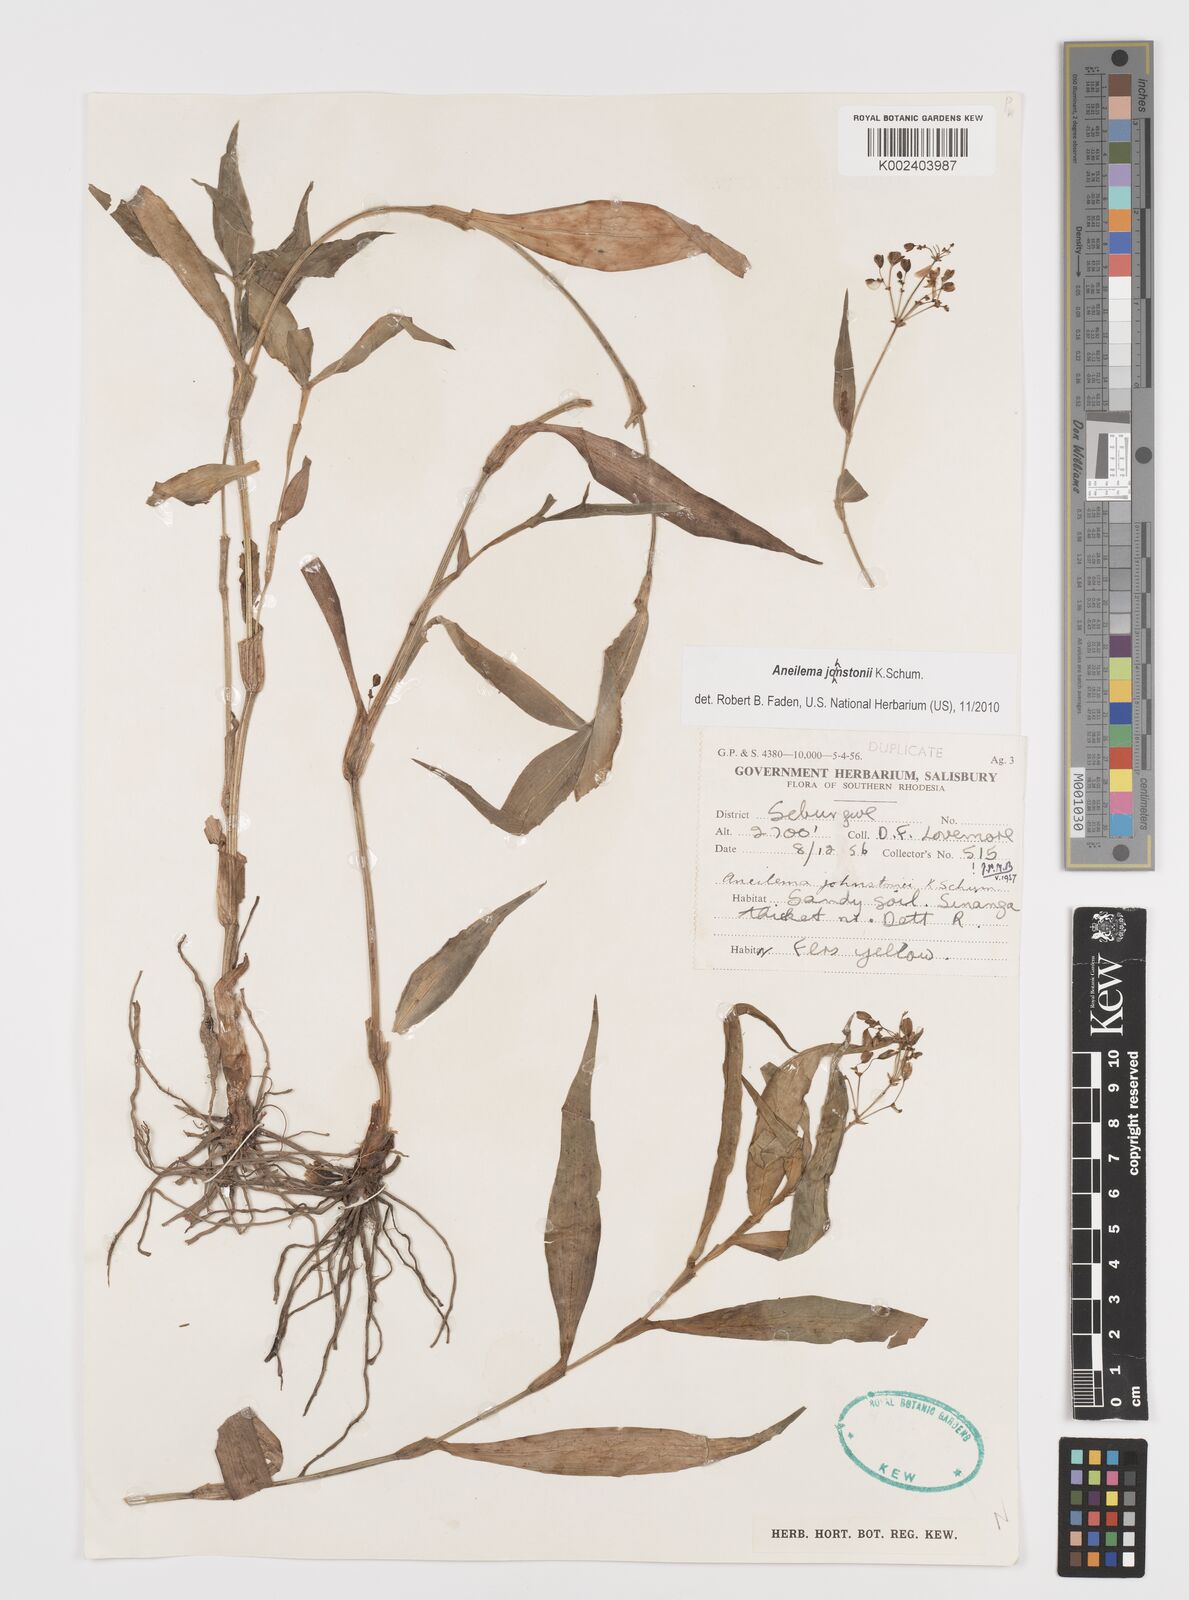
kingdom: Plantae
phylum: Tracheophyta
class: Liliopsida
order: Commelinales
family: Commelinaceae
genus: Aneilema
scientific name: Aneilema johnstonii
